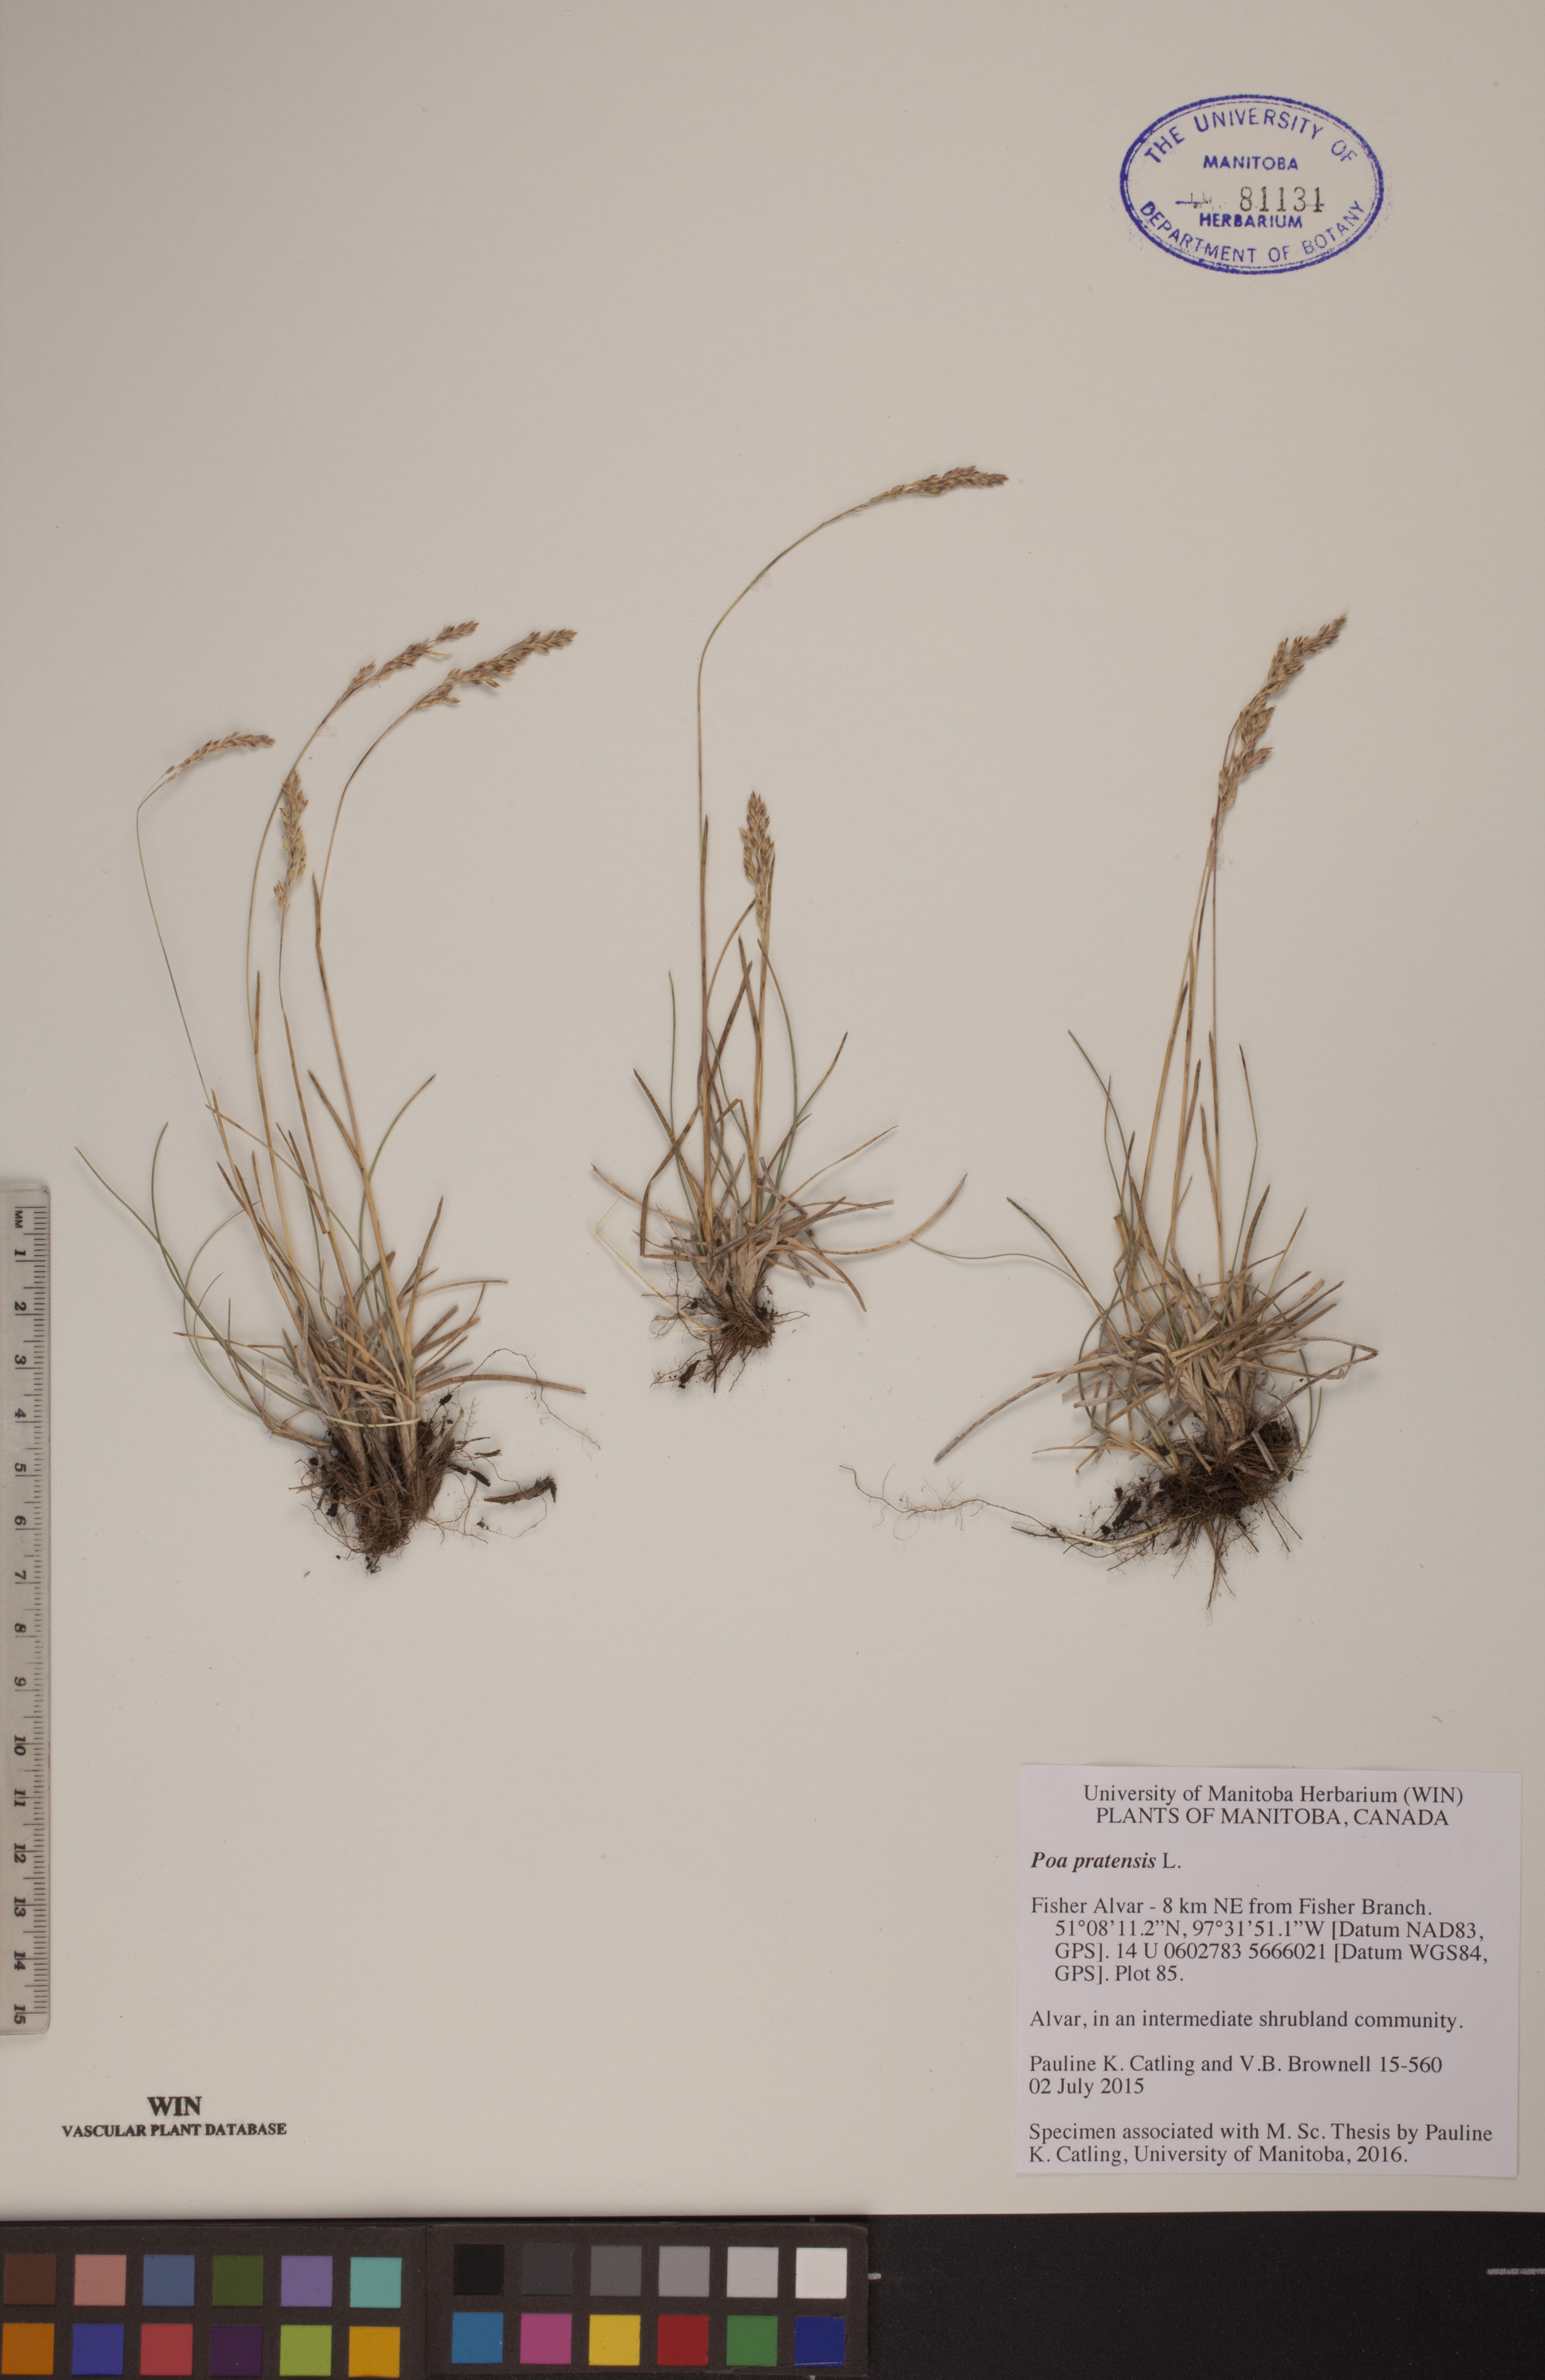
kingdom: Plantae
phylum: Tracheophyta
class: Liliopsida
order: Poales
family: Poaceae
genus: Poa
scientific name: Poa pratensis
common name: Kentucky bluegrass
